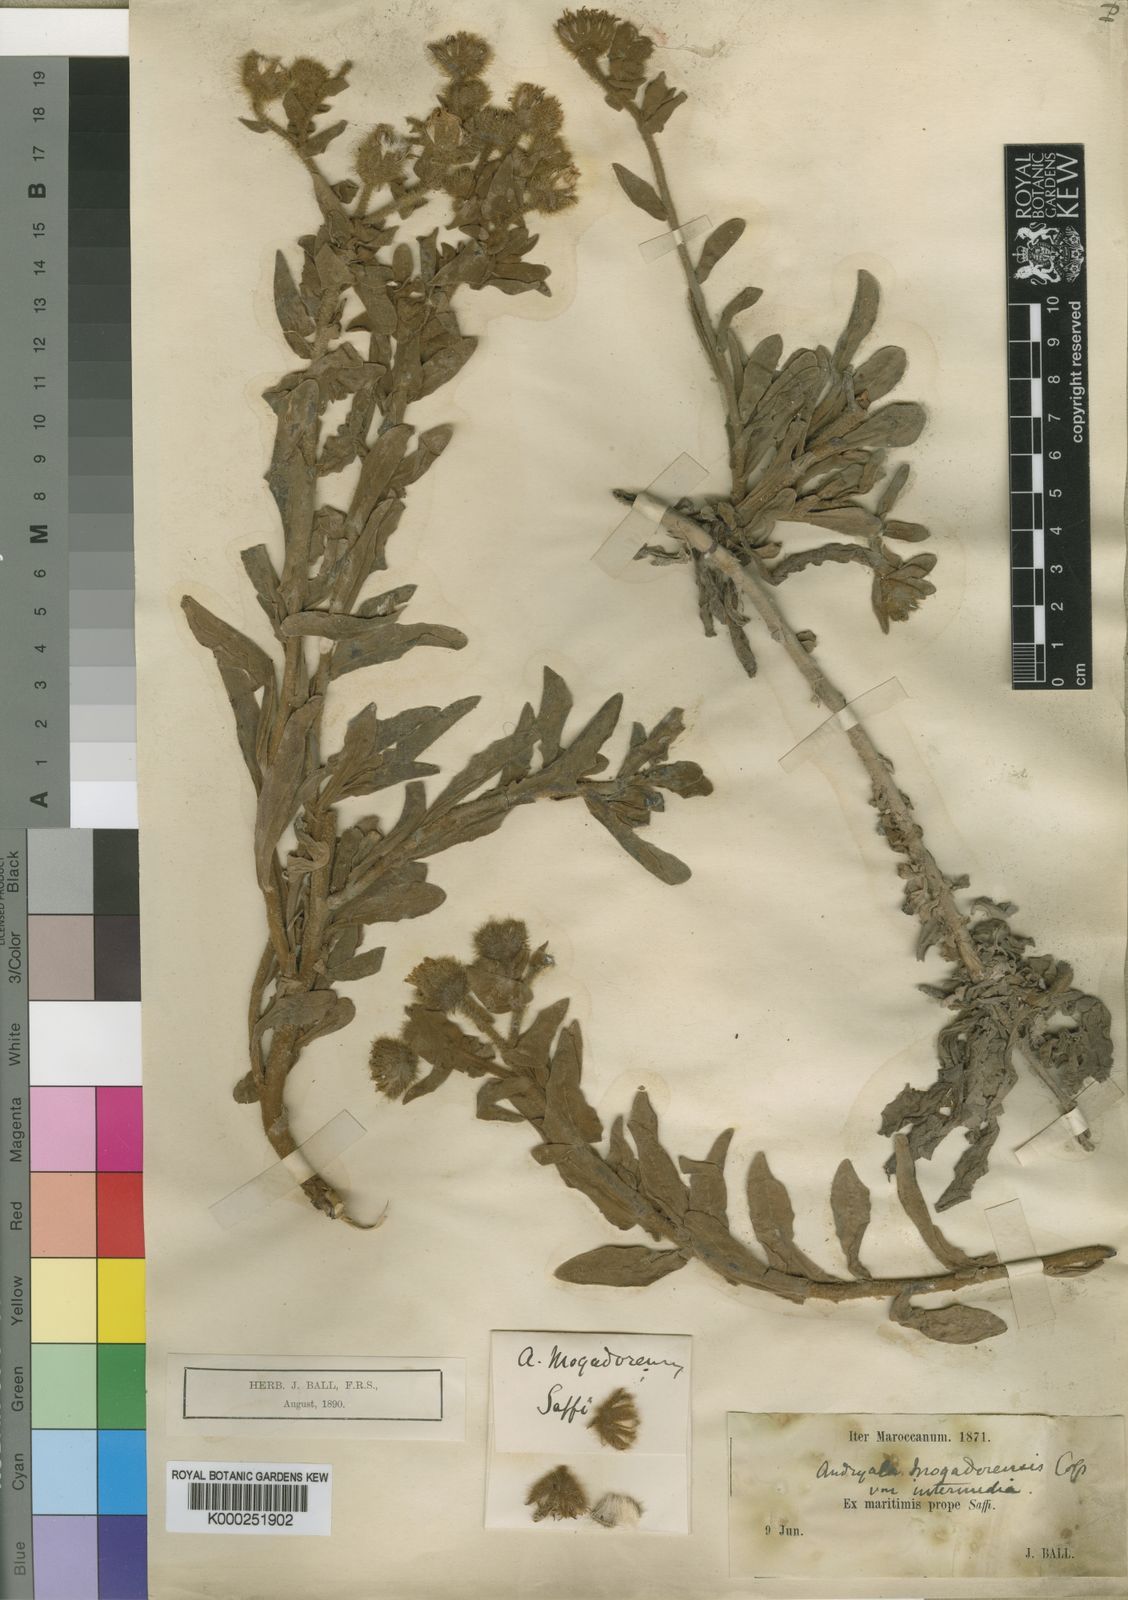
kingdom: Plantae
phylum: Tracheophyta
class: Magnoliopsida
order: Asterales
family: Asteraceae
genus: Andryala
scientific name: Andryala mogadorensis
